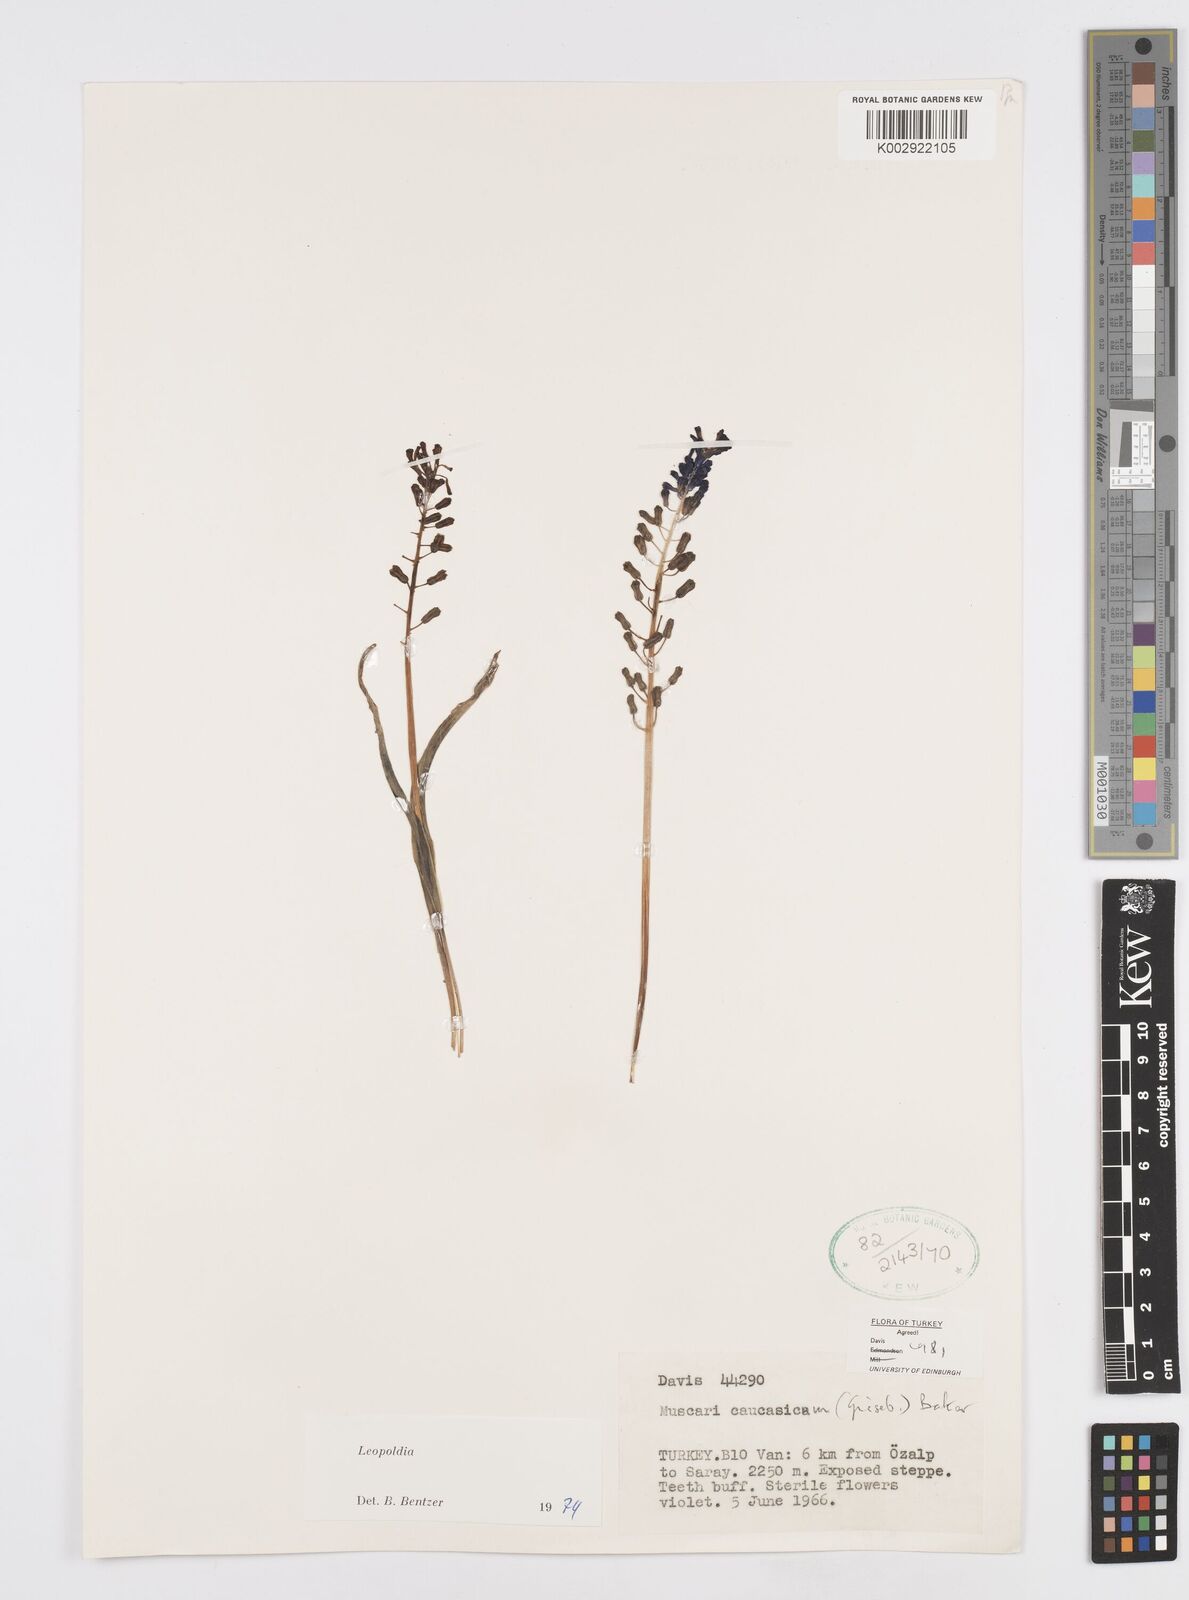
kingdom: Plantae
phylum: Tracheophyta
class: Liliopsida
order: Asparagales
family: Asparagaceae
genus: Muscari
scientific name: Muscari caucasicum
